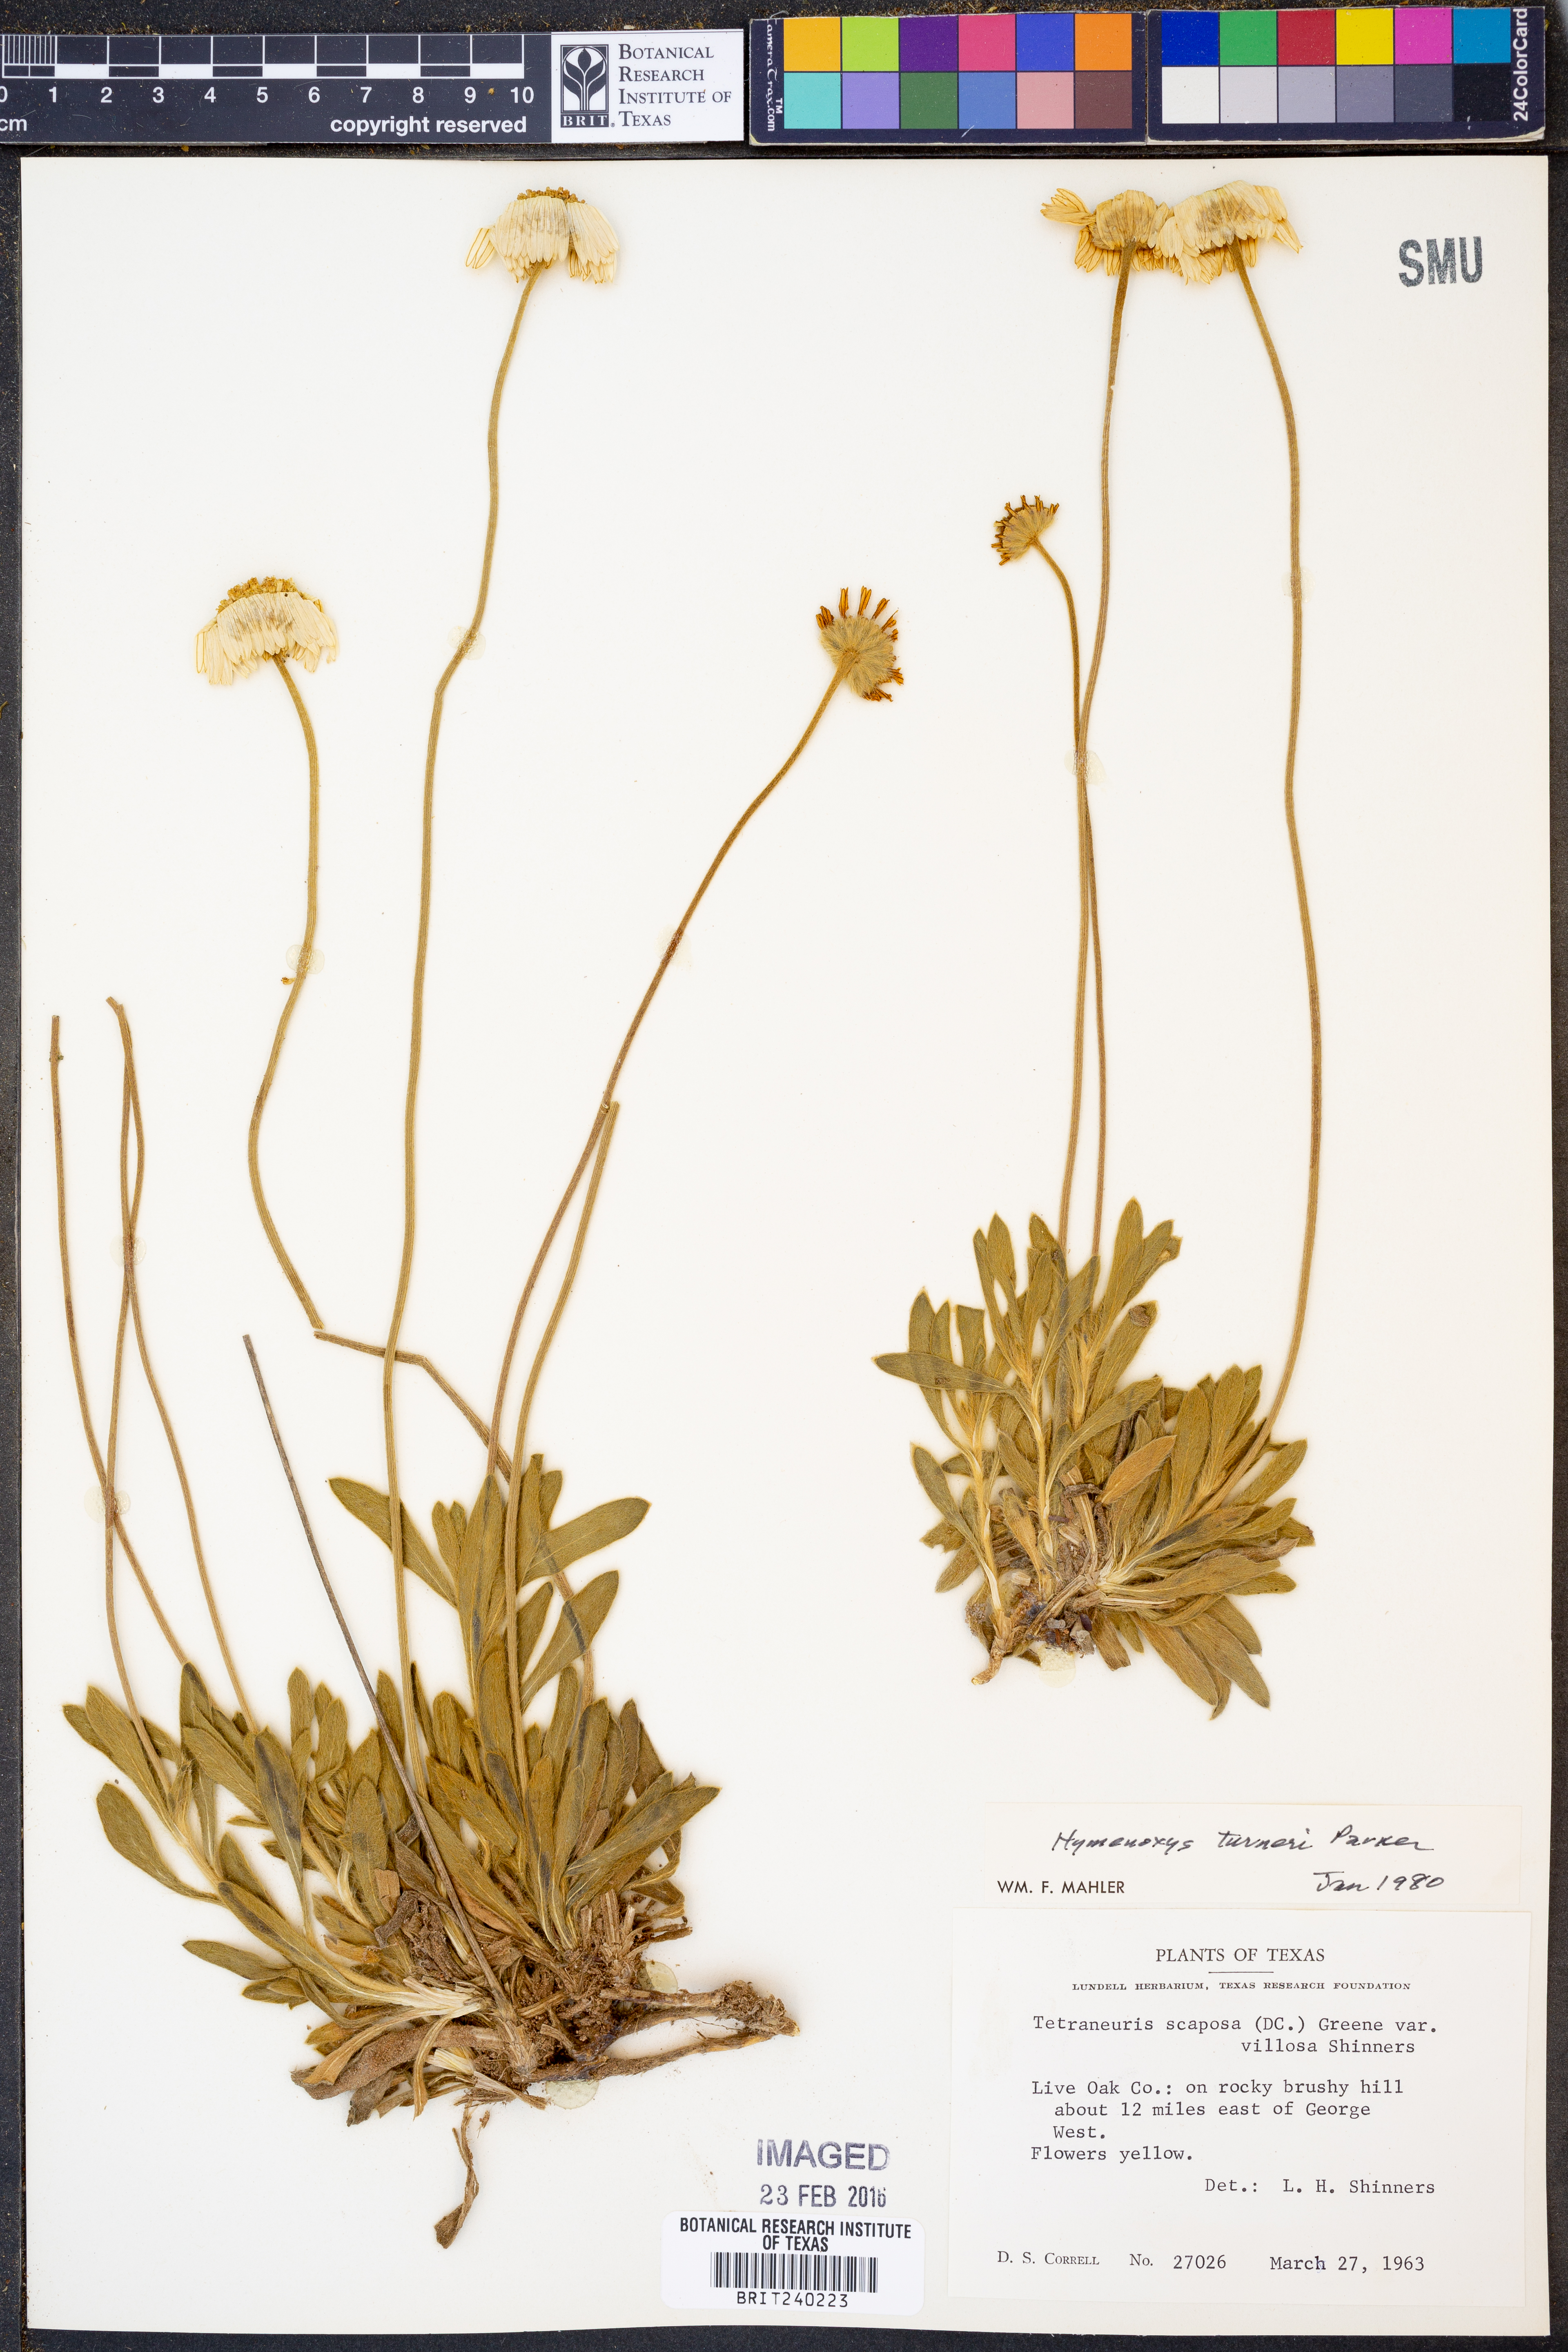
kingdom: Plantae
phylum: Tracheophyta
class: Magnoliopsida
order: Asterales
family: Asteraceae
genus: Tetraneuris
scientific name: Tetraneuris turneri
